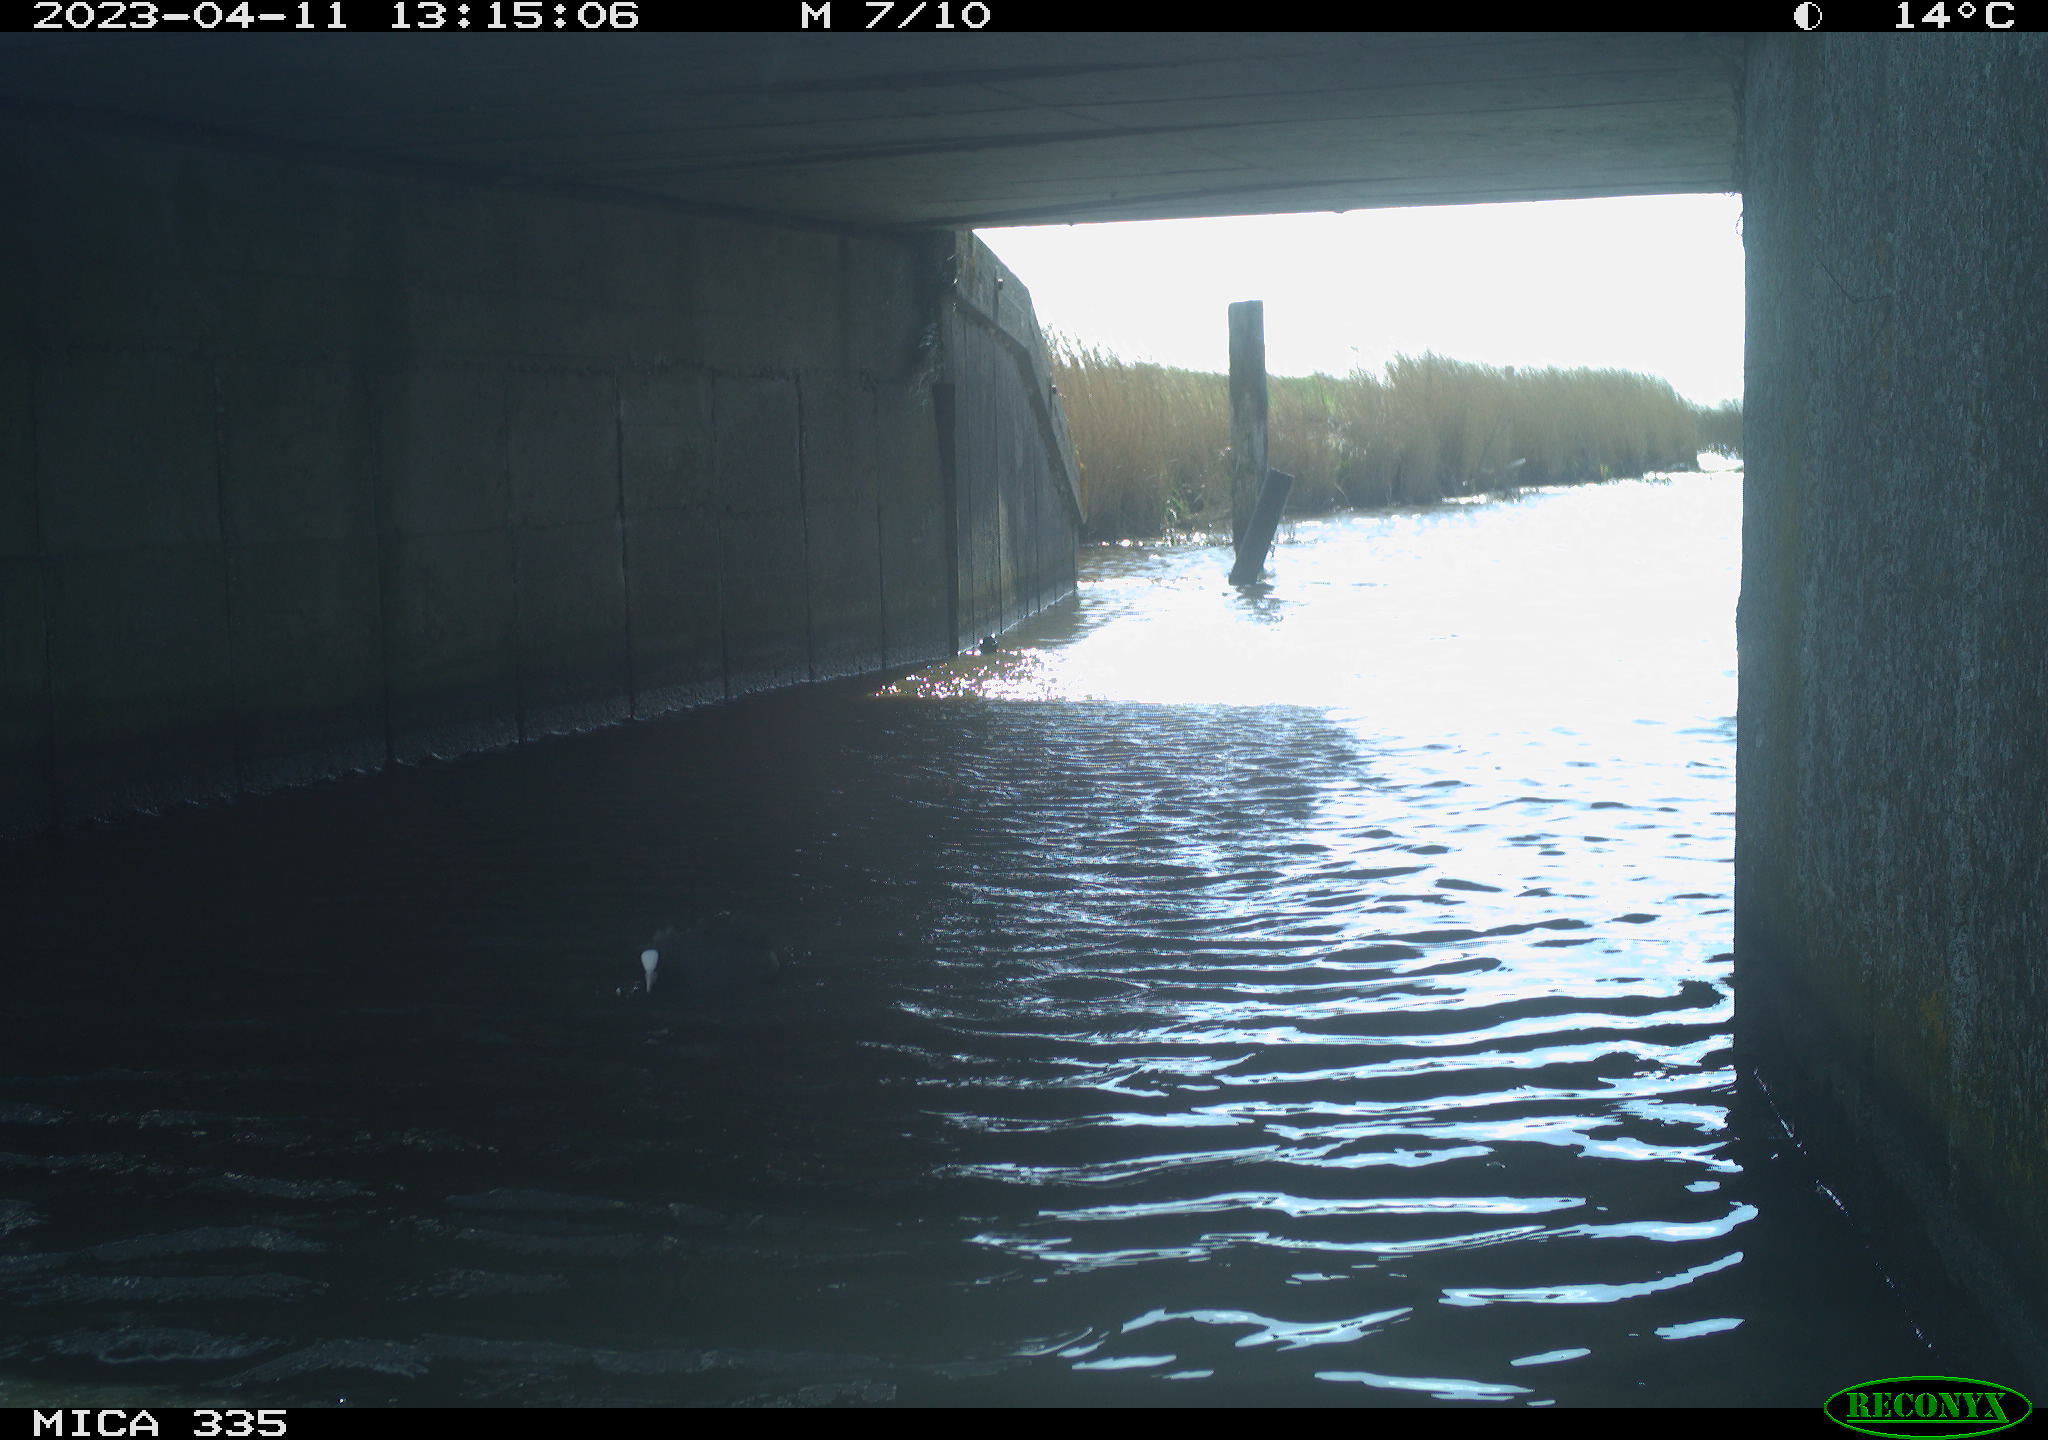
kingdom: Animalia
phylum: Chordata
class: Aves
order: Anseriformes
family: Anatidae
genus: Anas
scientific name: Anas
